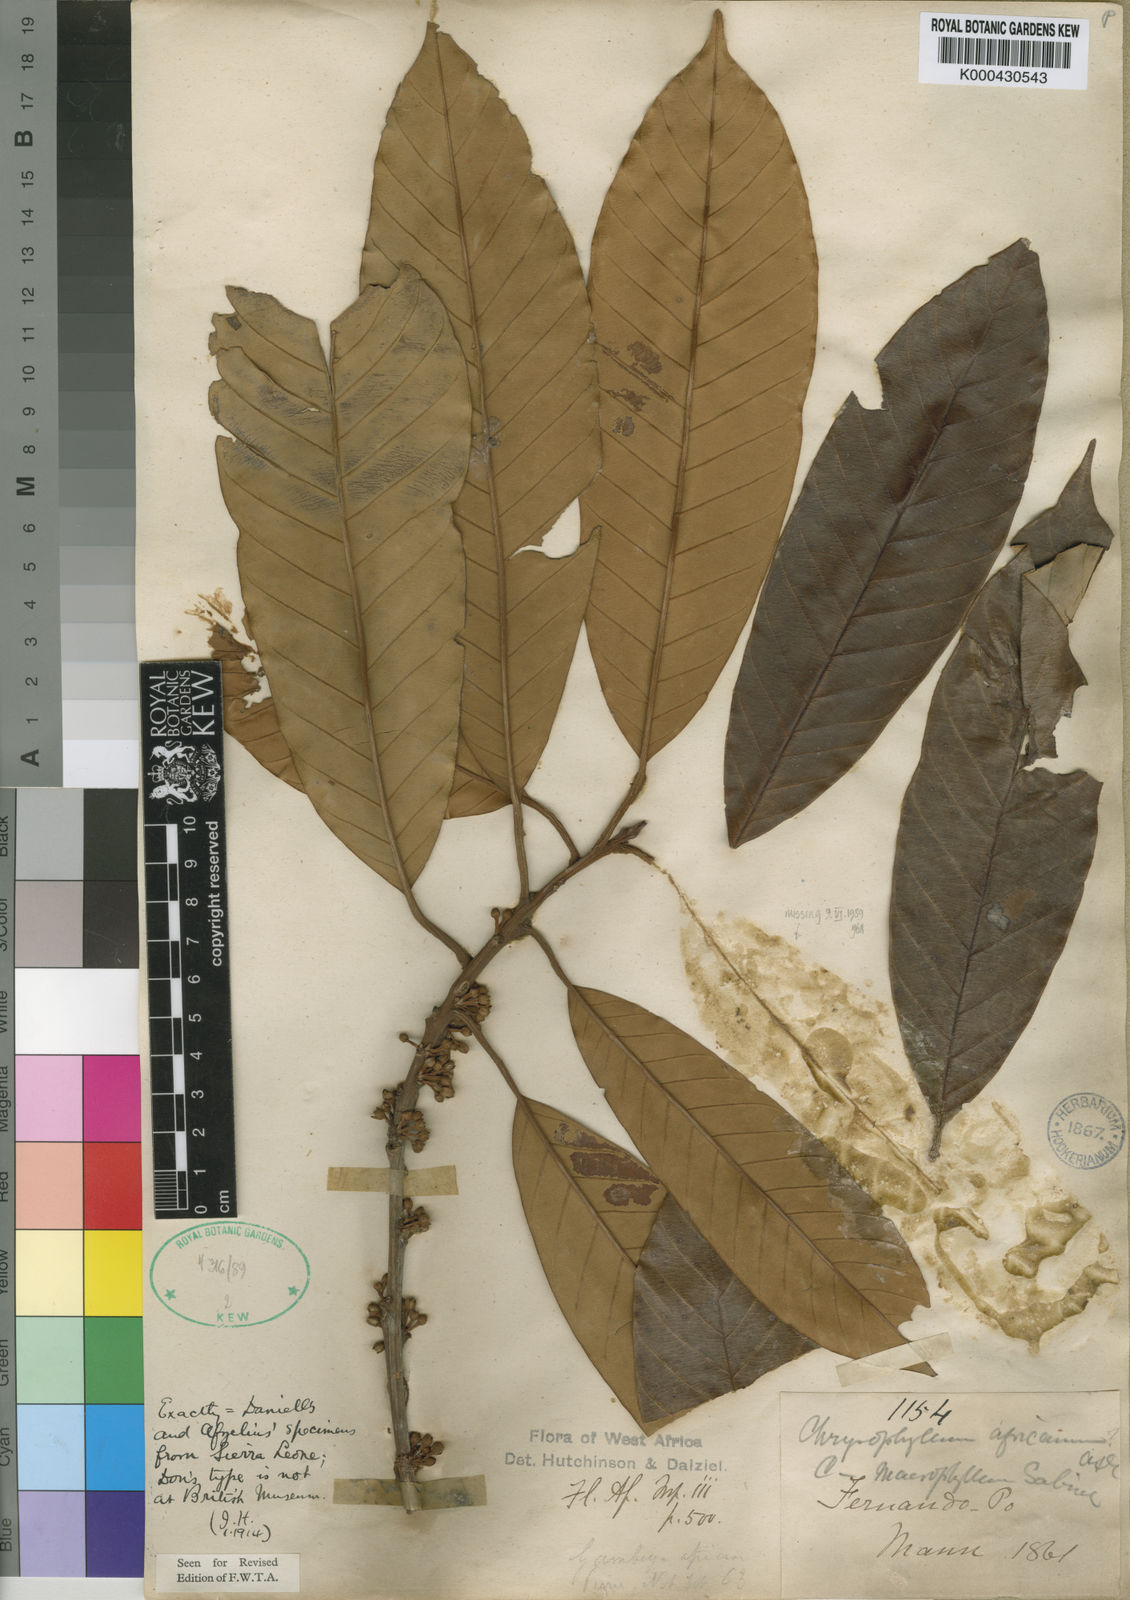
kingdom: Plantae
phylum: Tracheophyta
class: Magnoliopsida
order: Ericales
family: Sapotaceae
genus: Gambeya
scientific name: Gambeya africana
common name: African star apple
